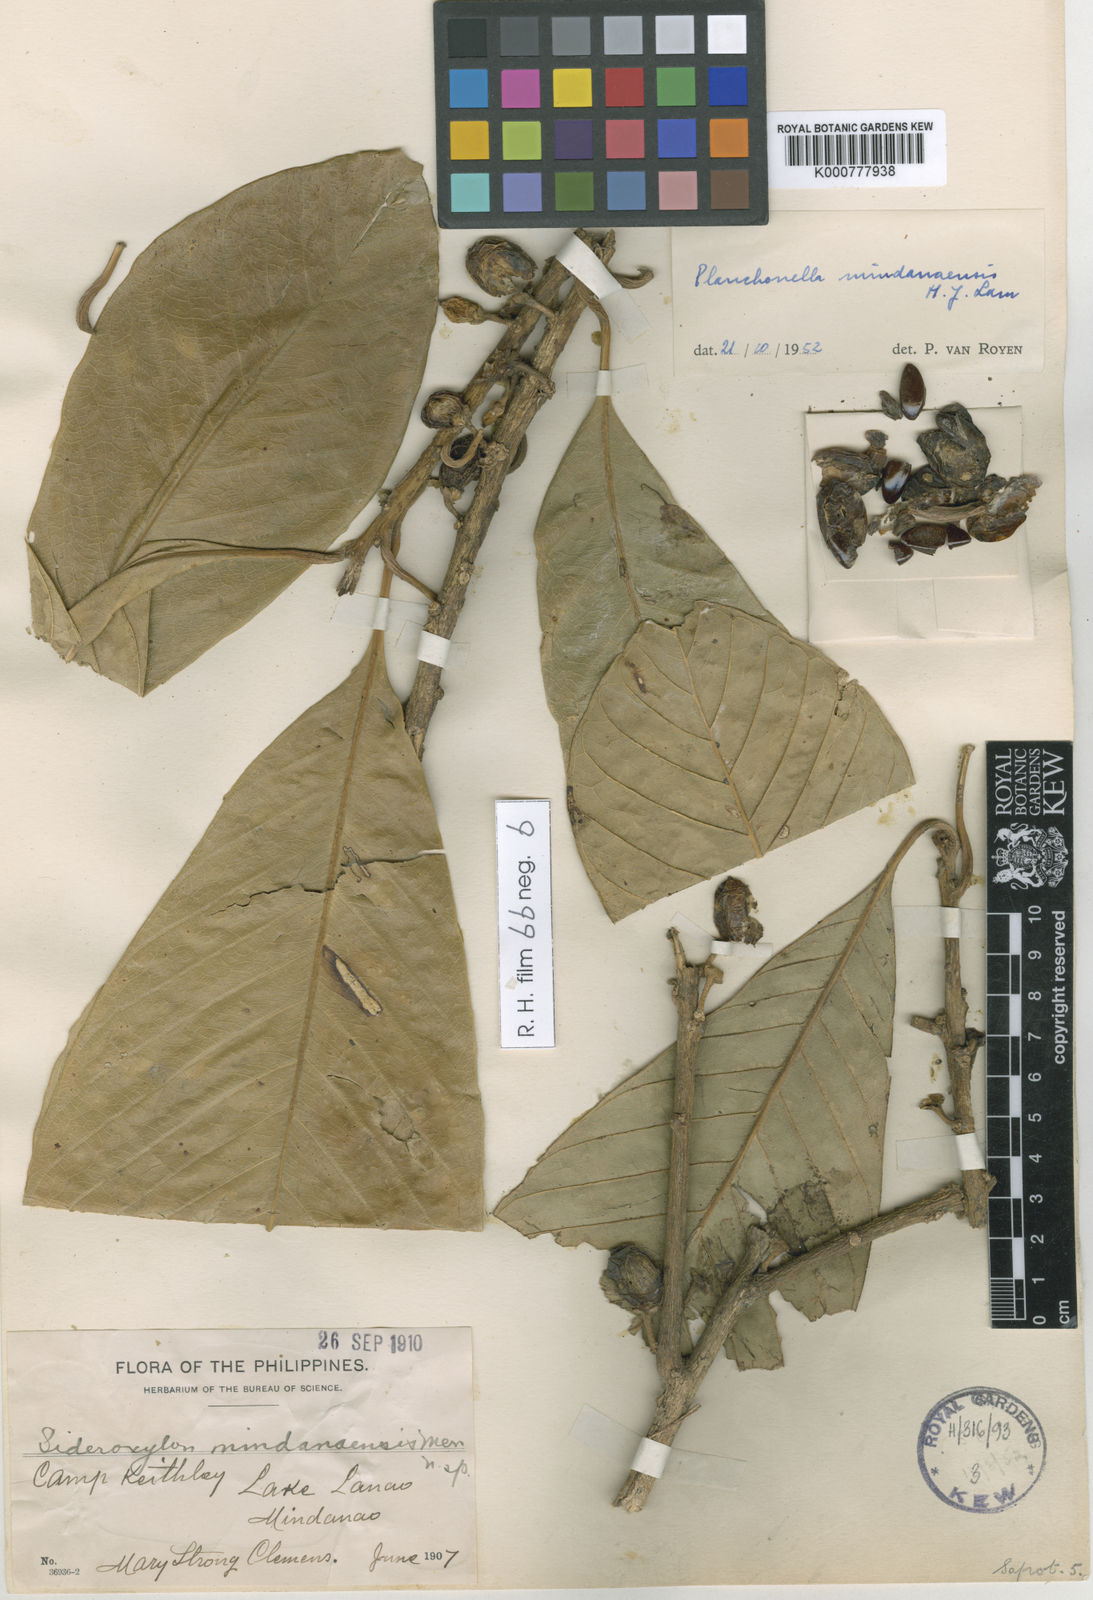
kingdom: Plantae
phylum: Tracheophyta
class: Magnoliopsida
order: Ericales
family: Sapotaceae
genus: Planchonella
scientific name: Planchonella mindanaensis
